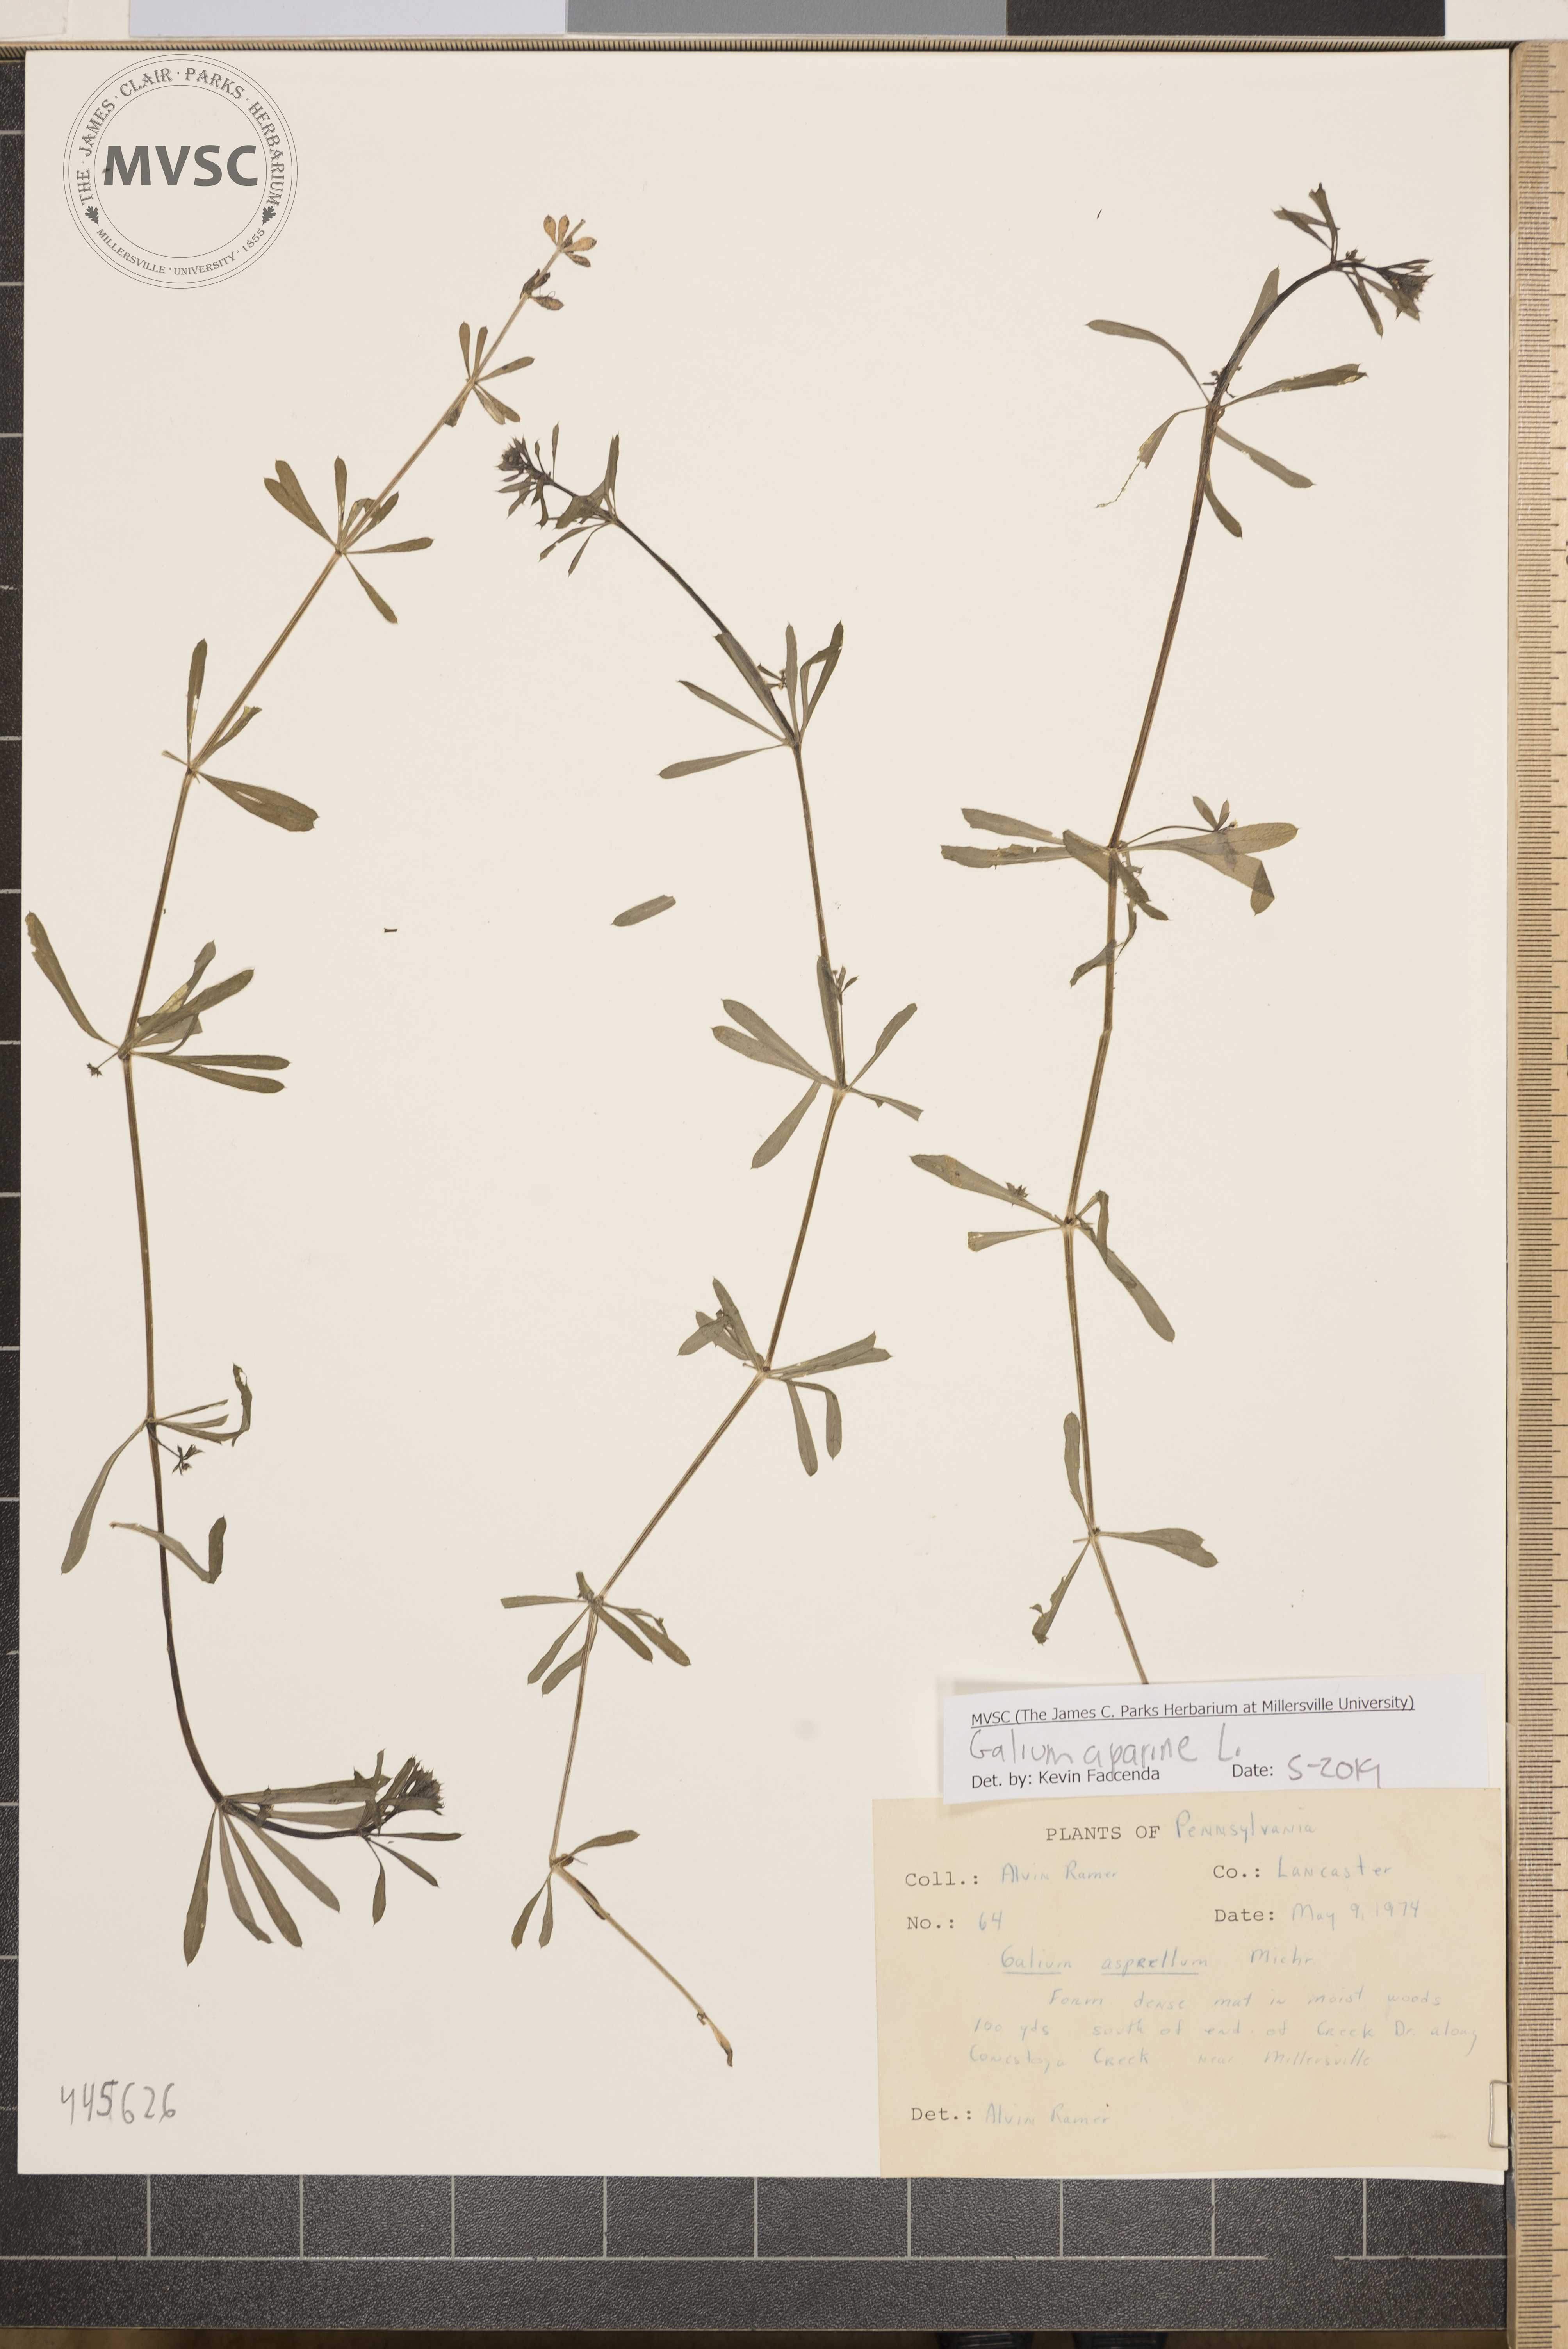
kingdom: Plantae
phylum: Tracheophyta
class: Magnoliopsida
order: Gentianales
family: Rubiaceae
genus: Galium
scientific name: Galium aparine
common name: Cleavers
